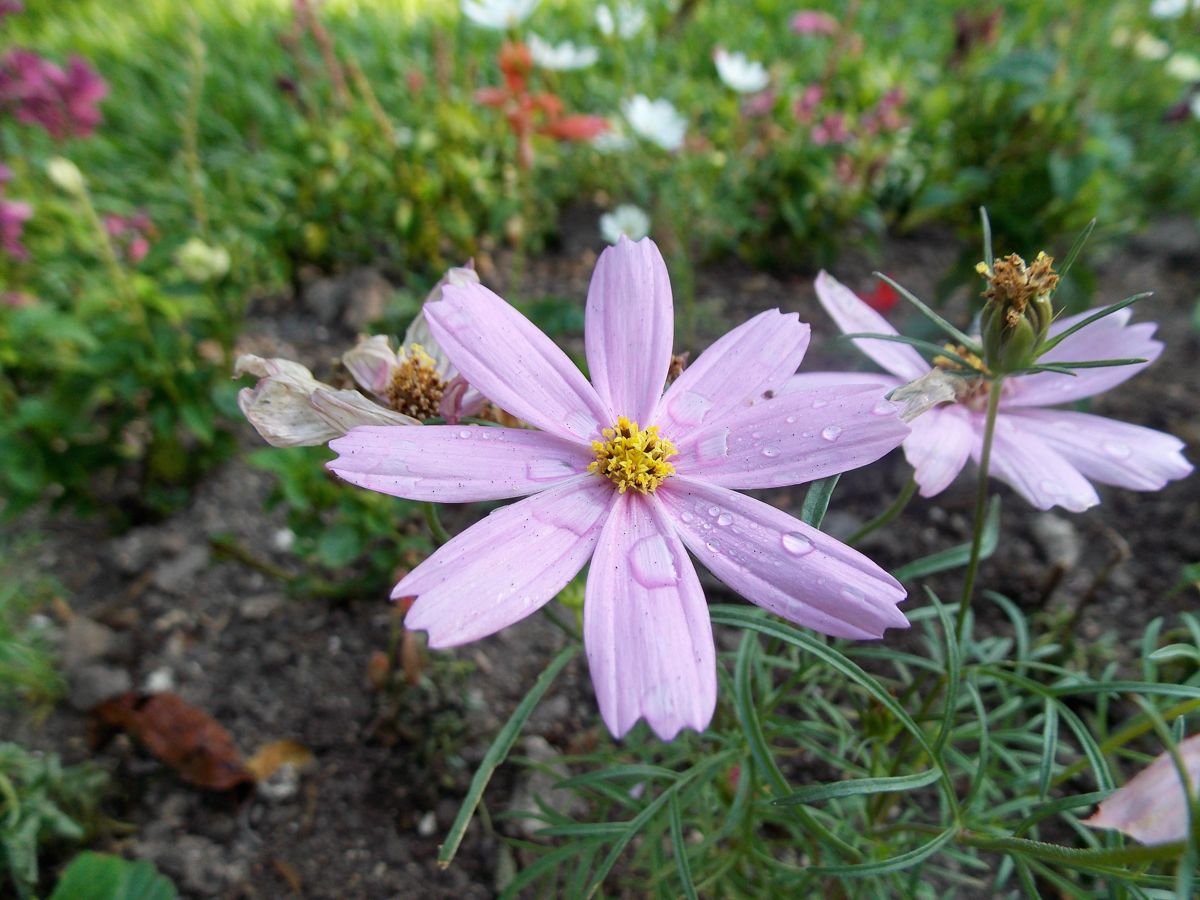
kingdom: Plantae
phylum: Tracheophyta
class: Magnoliopsida
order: Asterales
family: Asteraceae
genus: Cosmos
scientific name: Cosmos bipinnatus
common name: Garden cosmos
